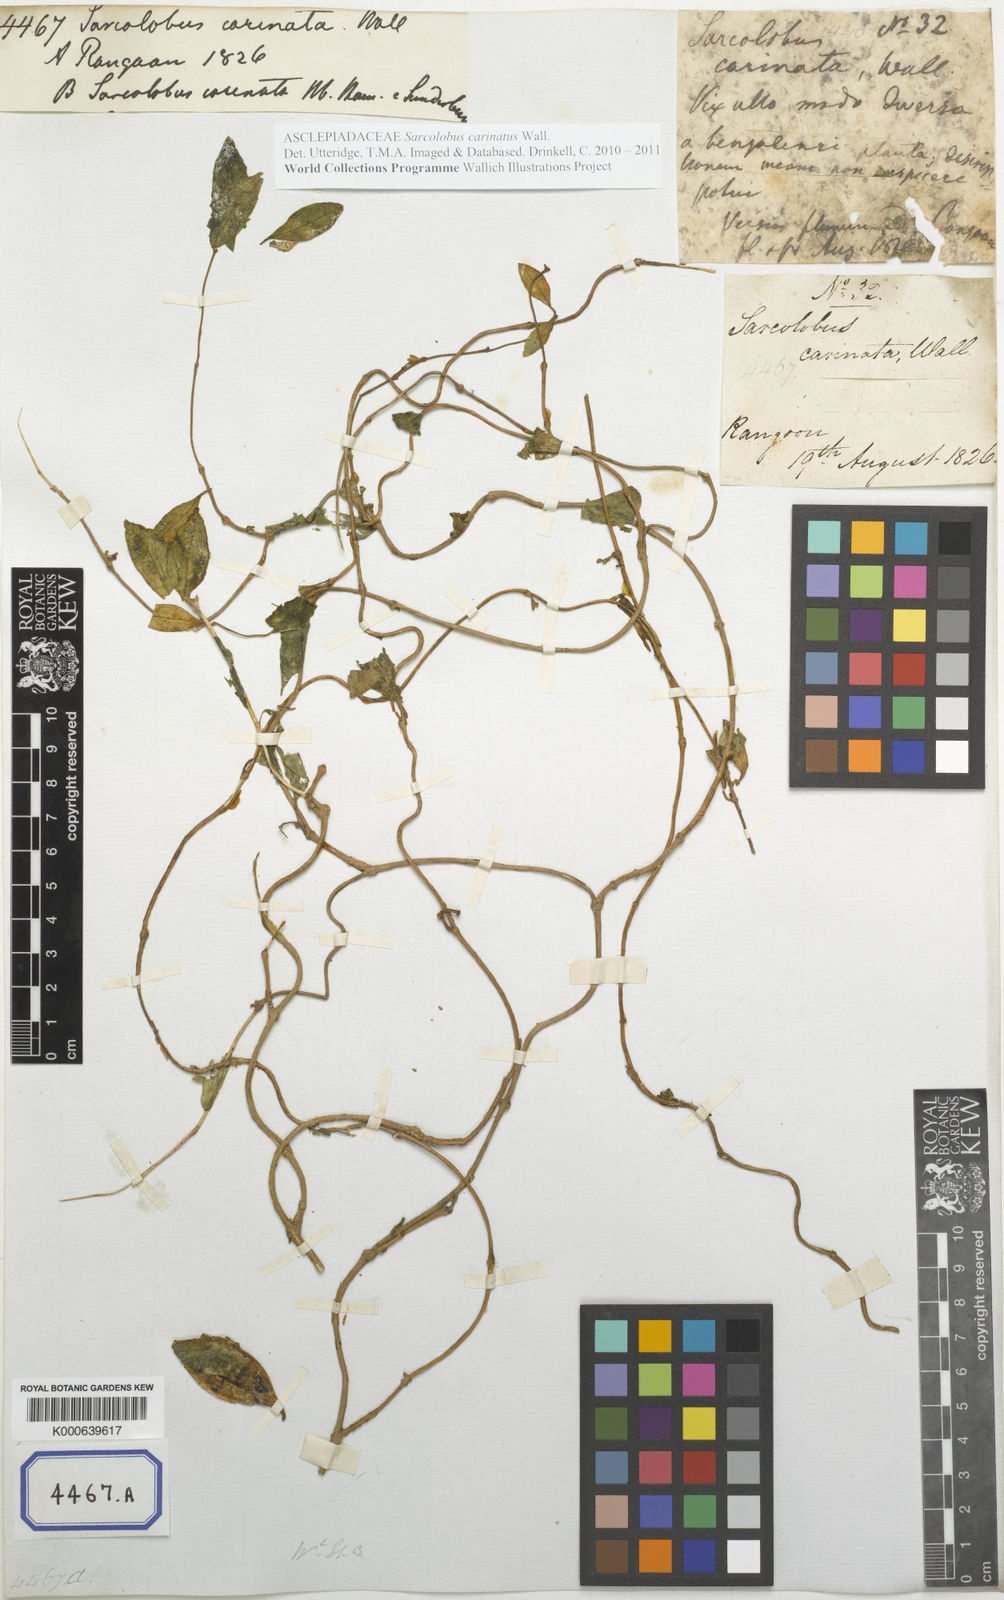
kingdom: Plantae
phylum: Tracheophyta
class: Magnoliopsida
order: Gentianales
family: Apocynaceae
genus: Sarcolobus
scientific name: Sarcolobus globosus
